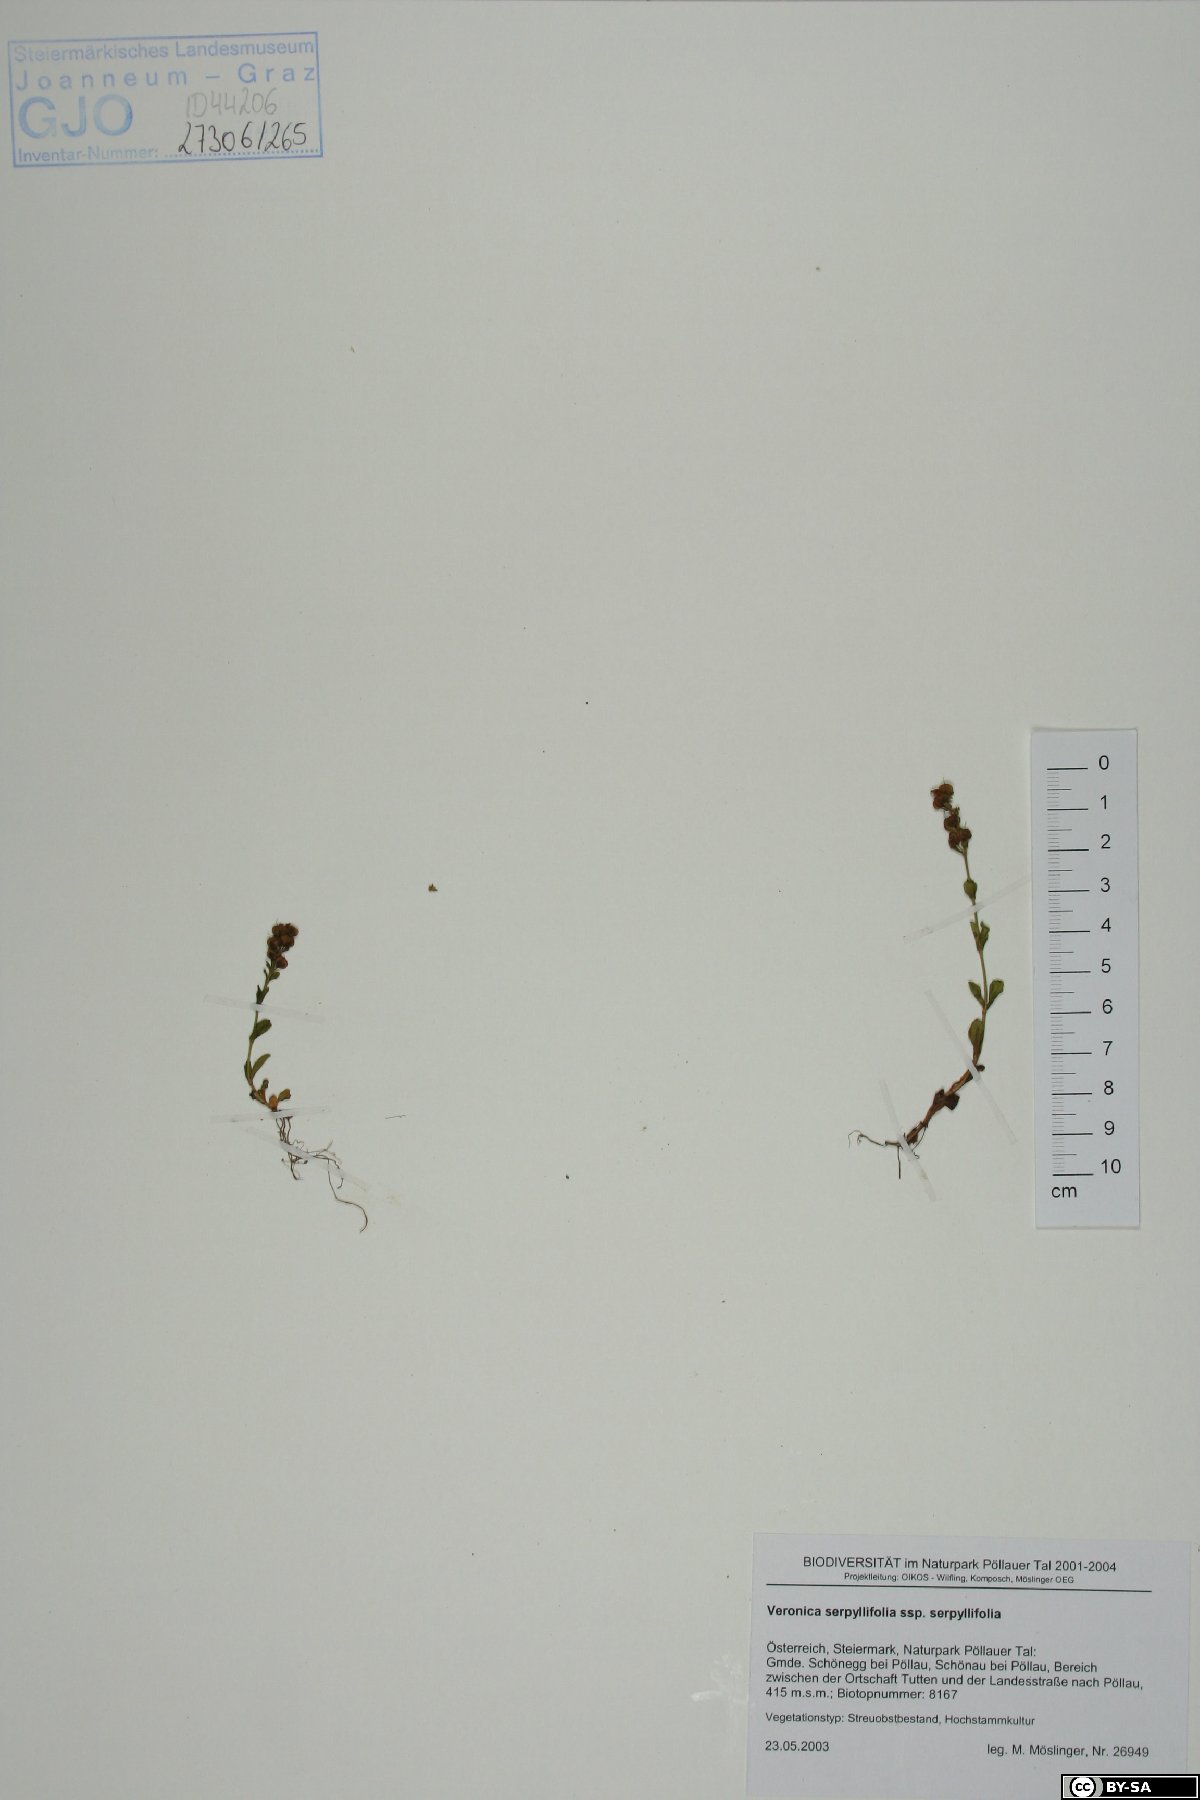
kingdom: Plantae
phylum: Tracheophyta
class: Magnoliopsida
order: Lamiales
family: Plantaginaceae
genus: Veronica
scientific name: Veronica serpyllifolia
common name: Thyme-leaved speedwell
